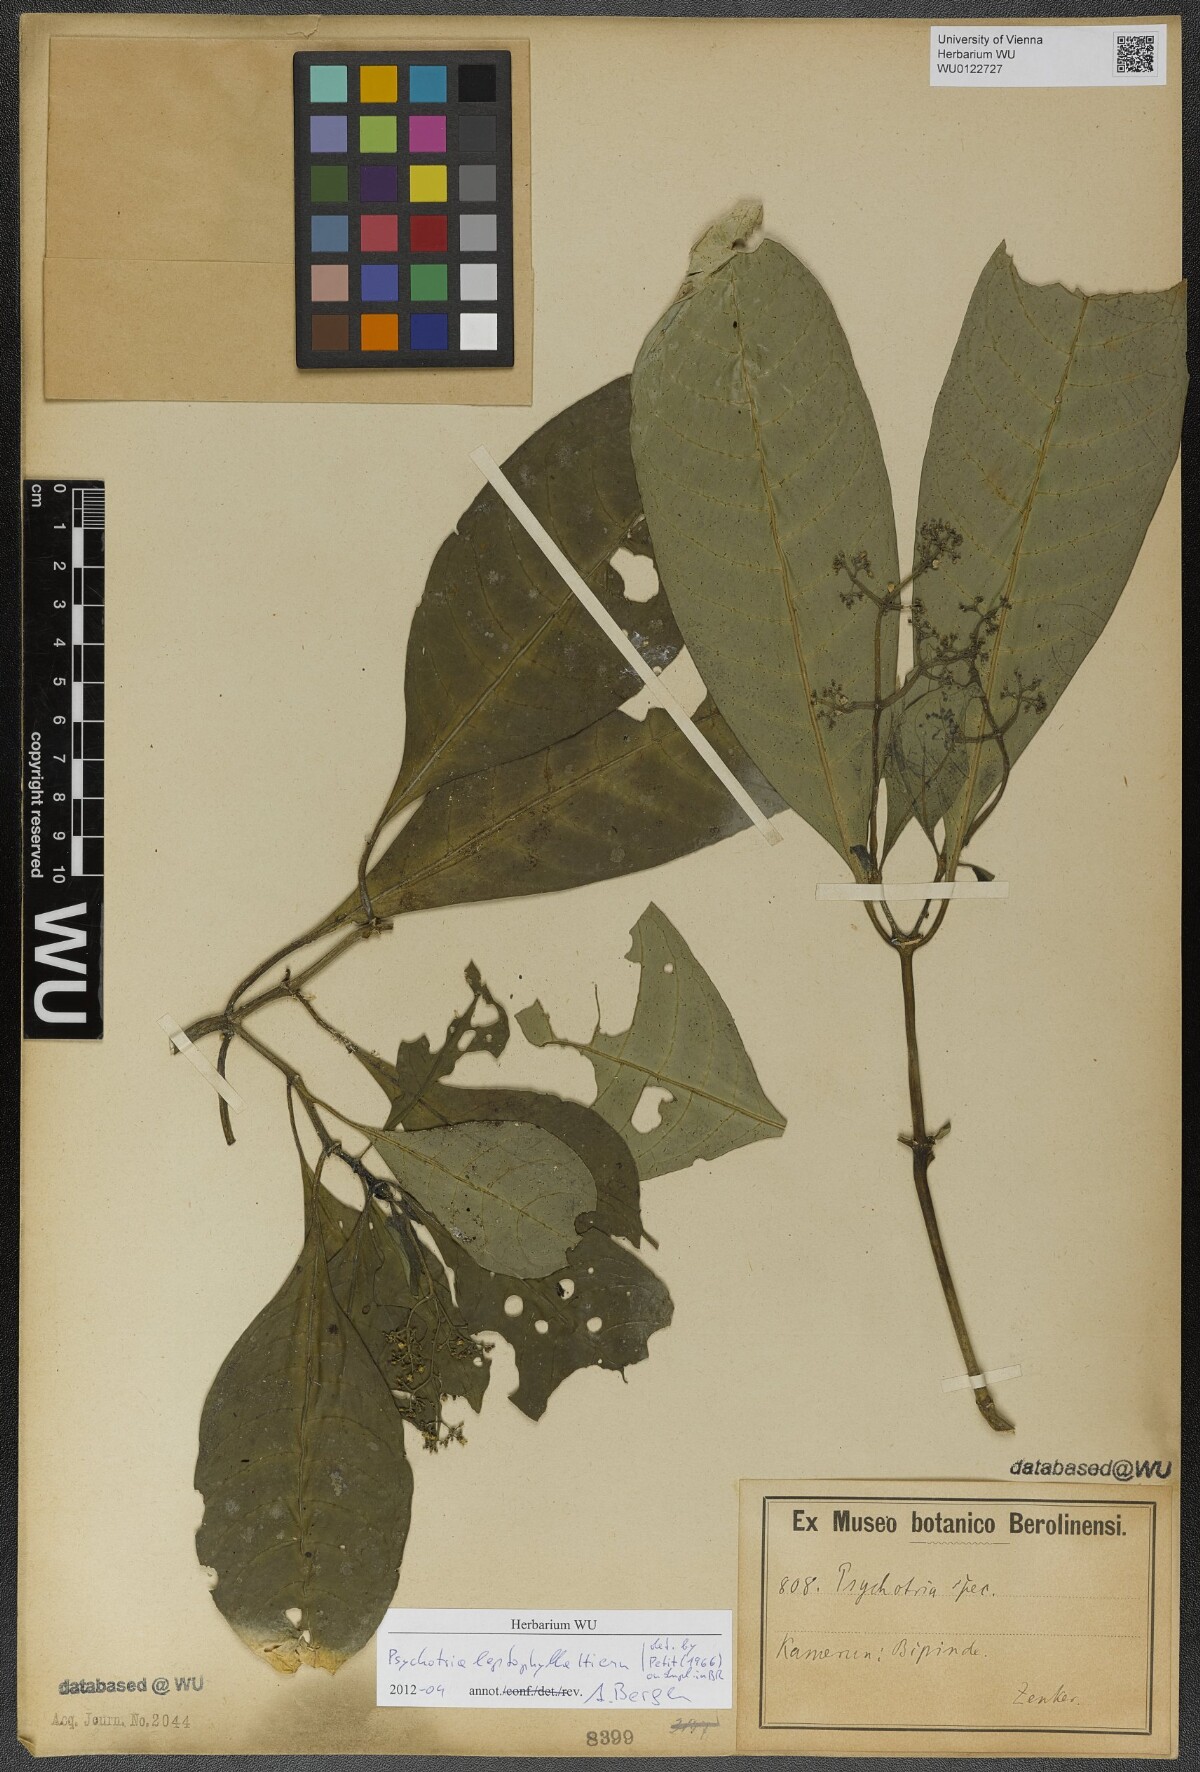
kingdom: Plantae
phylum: Tracheophyta
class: Magnoliopsida
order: Gentianales
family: Rubiaceae
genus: Psychotria
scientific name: Psychotria leptophylla
